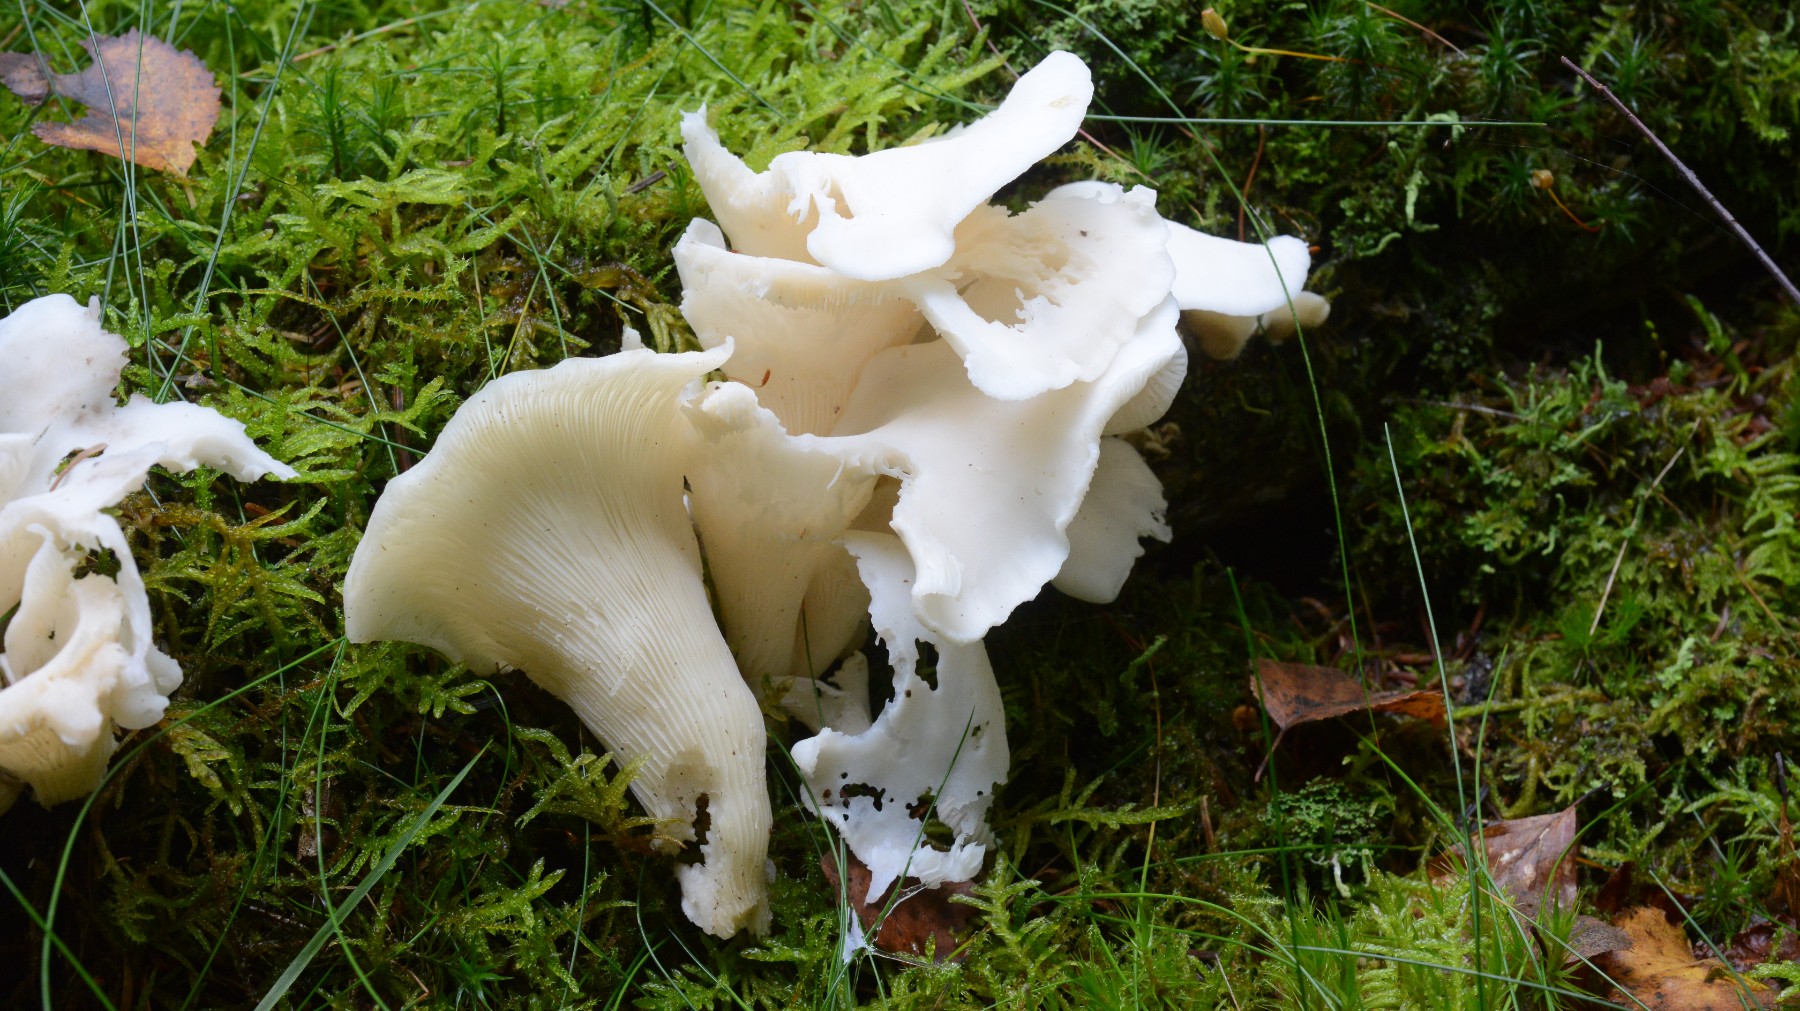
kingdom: Fungi
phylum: Basidiomycota
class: Agaricomycetes
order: Agaricales
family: Marasmiaceae
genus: Pleurocybella
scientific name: Pleurocybella porrigens
